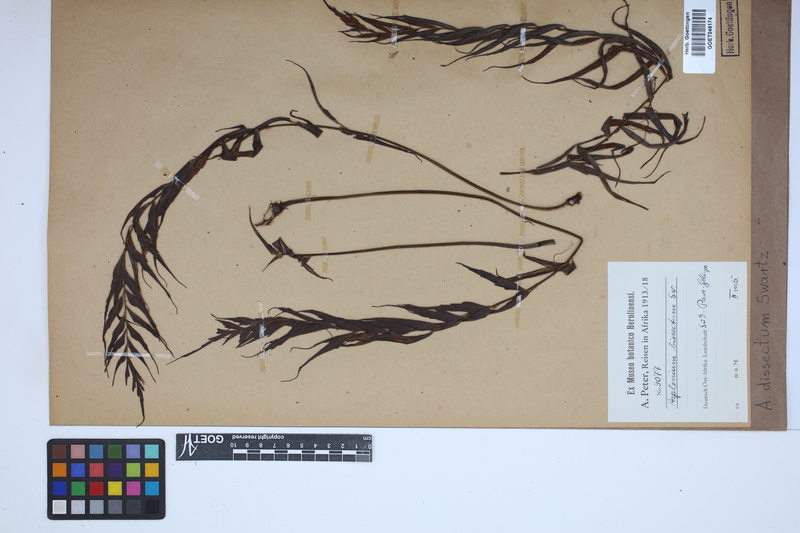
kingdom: Plantae
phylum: Tracheophyta
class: Polypodiopsida
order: Polypodiales
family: Aspleniaceae
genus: Asplenium
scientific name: Asplenium dissectum
